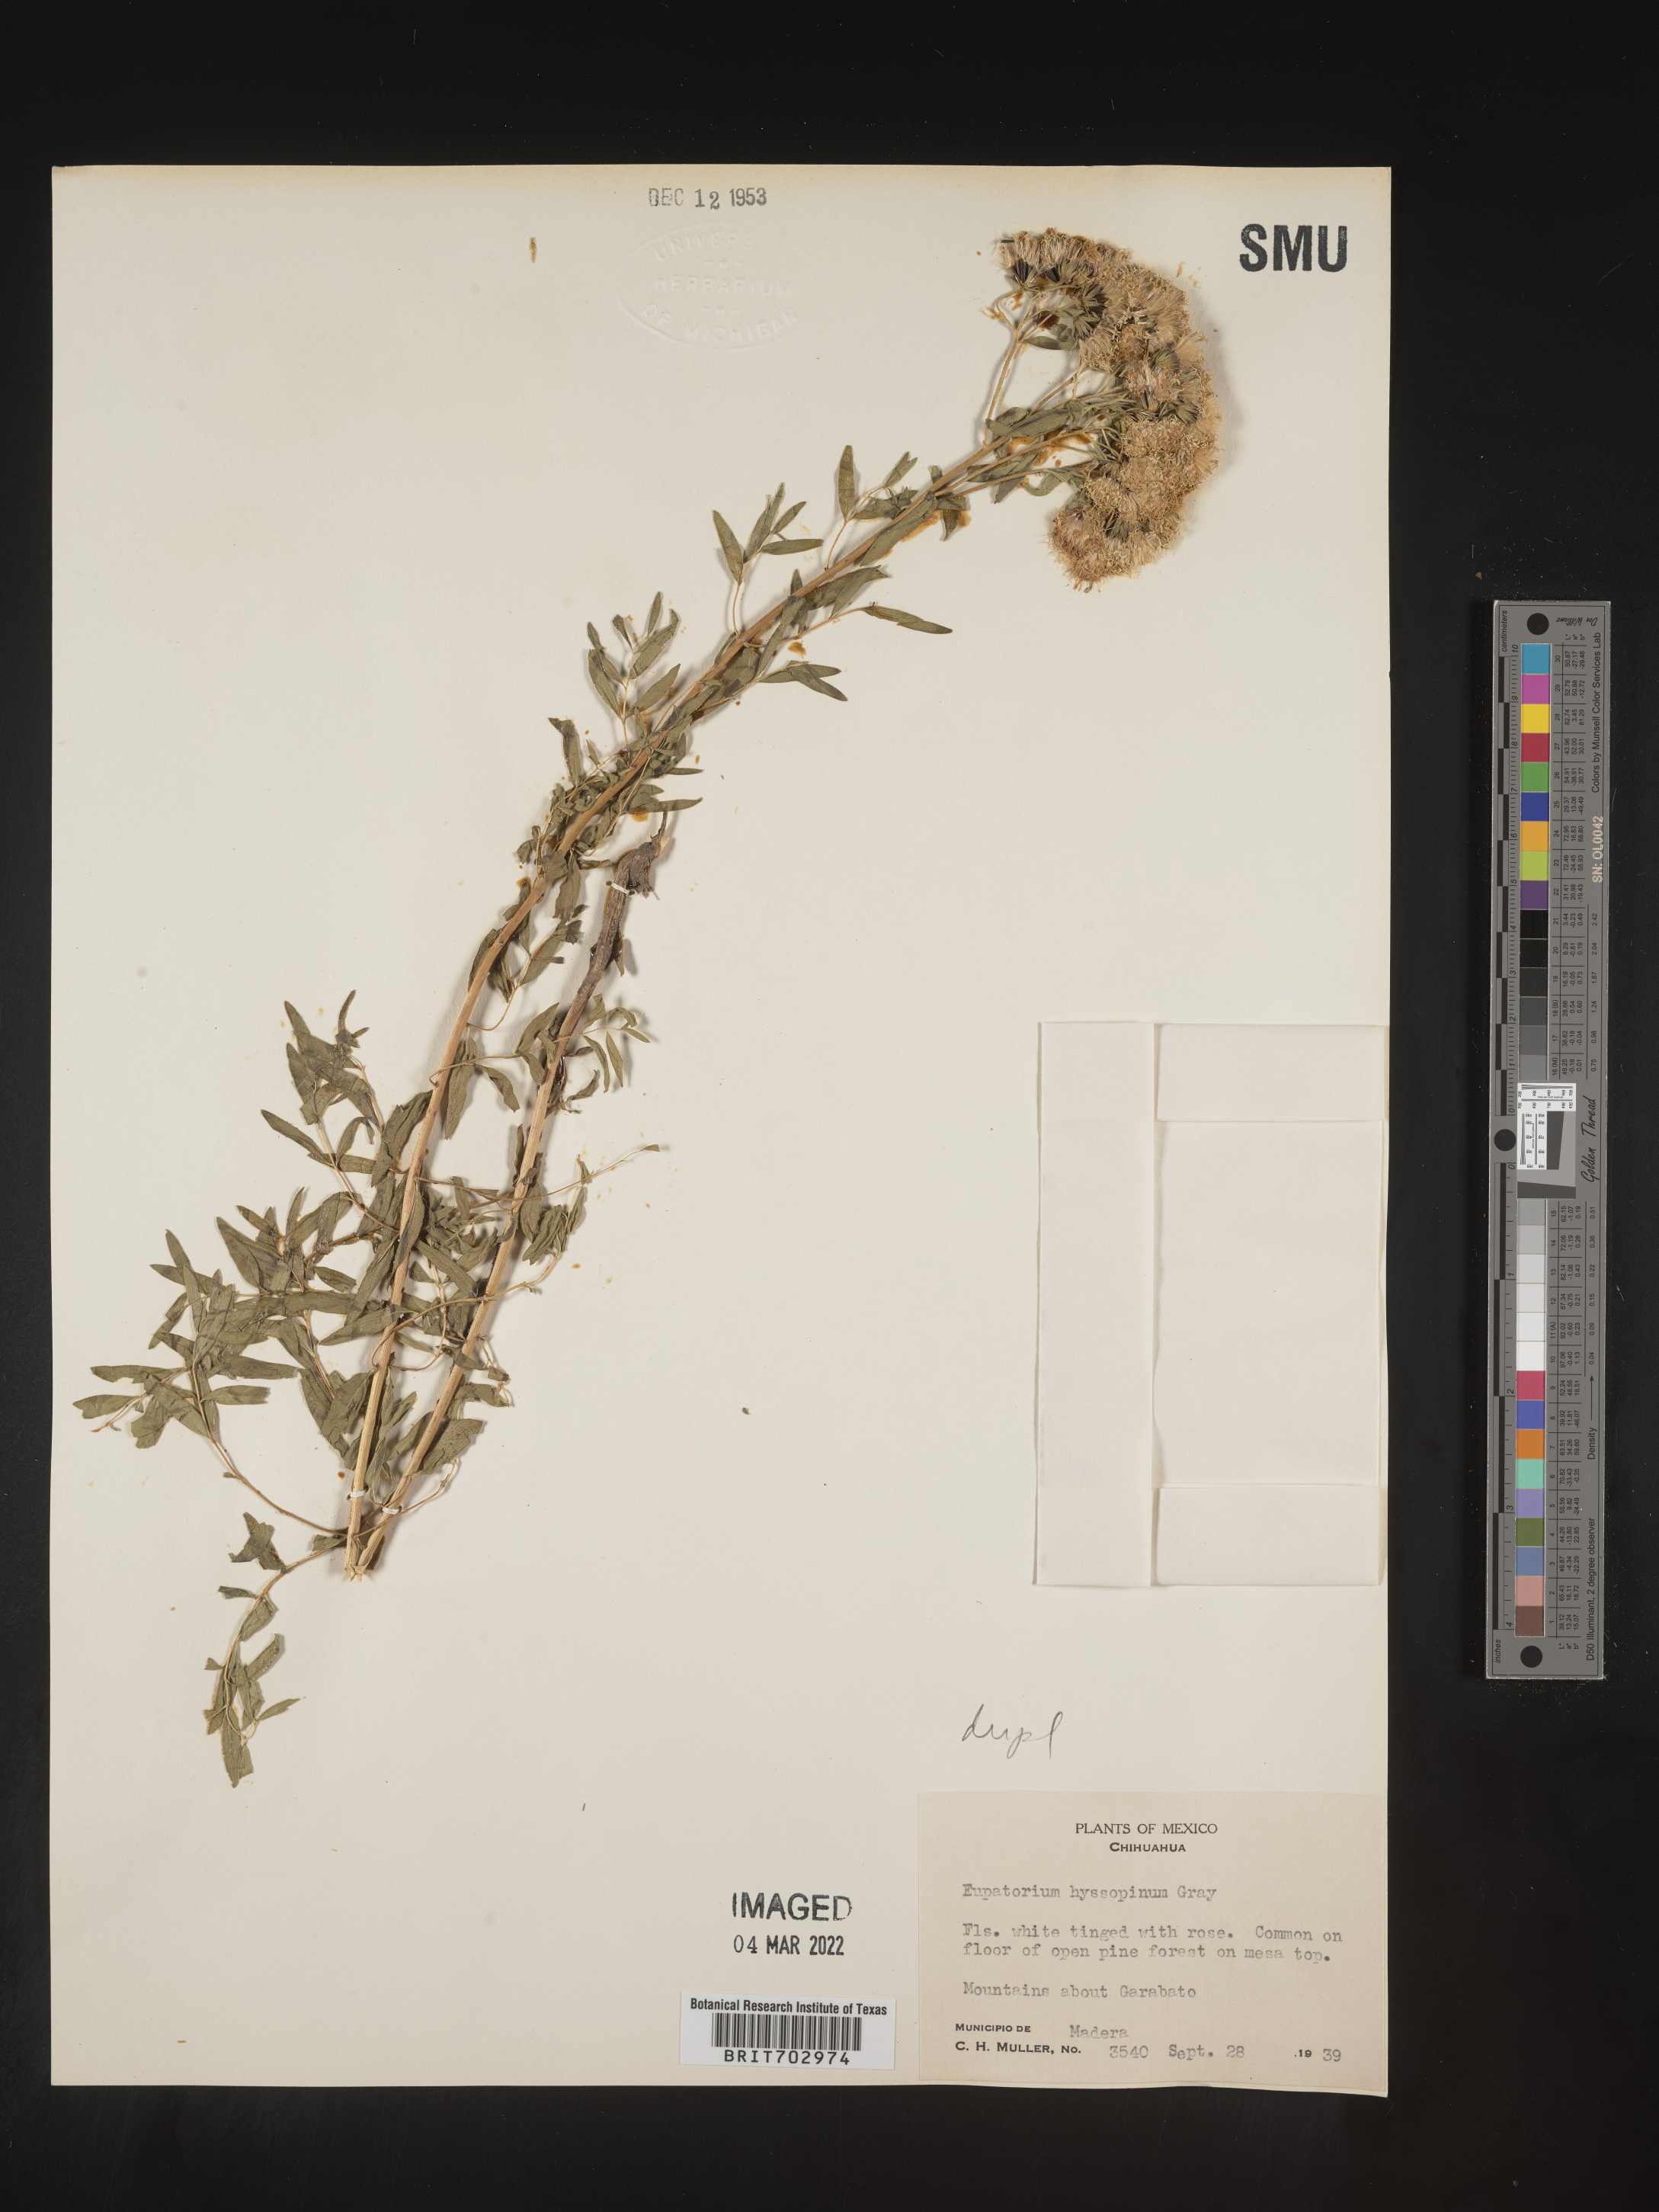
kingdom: Plantae
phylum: Tracheophyta
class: Magnoliopsida
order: Asterales
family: Asteraceae
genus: Eupatorium
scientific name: Eupatorium
